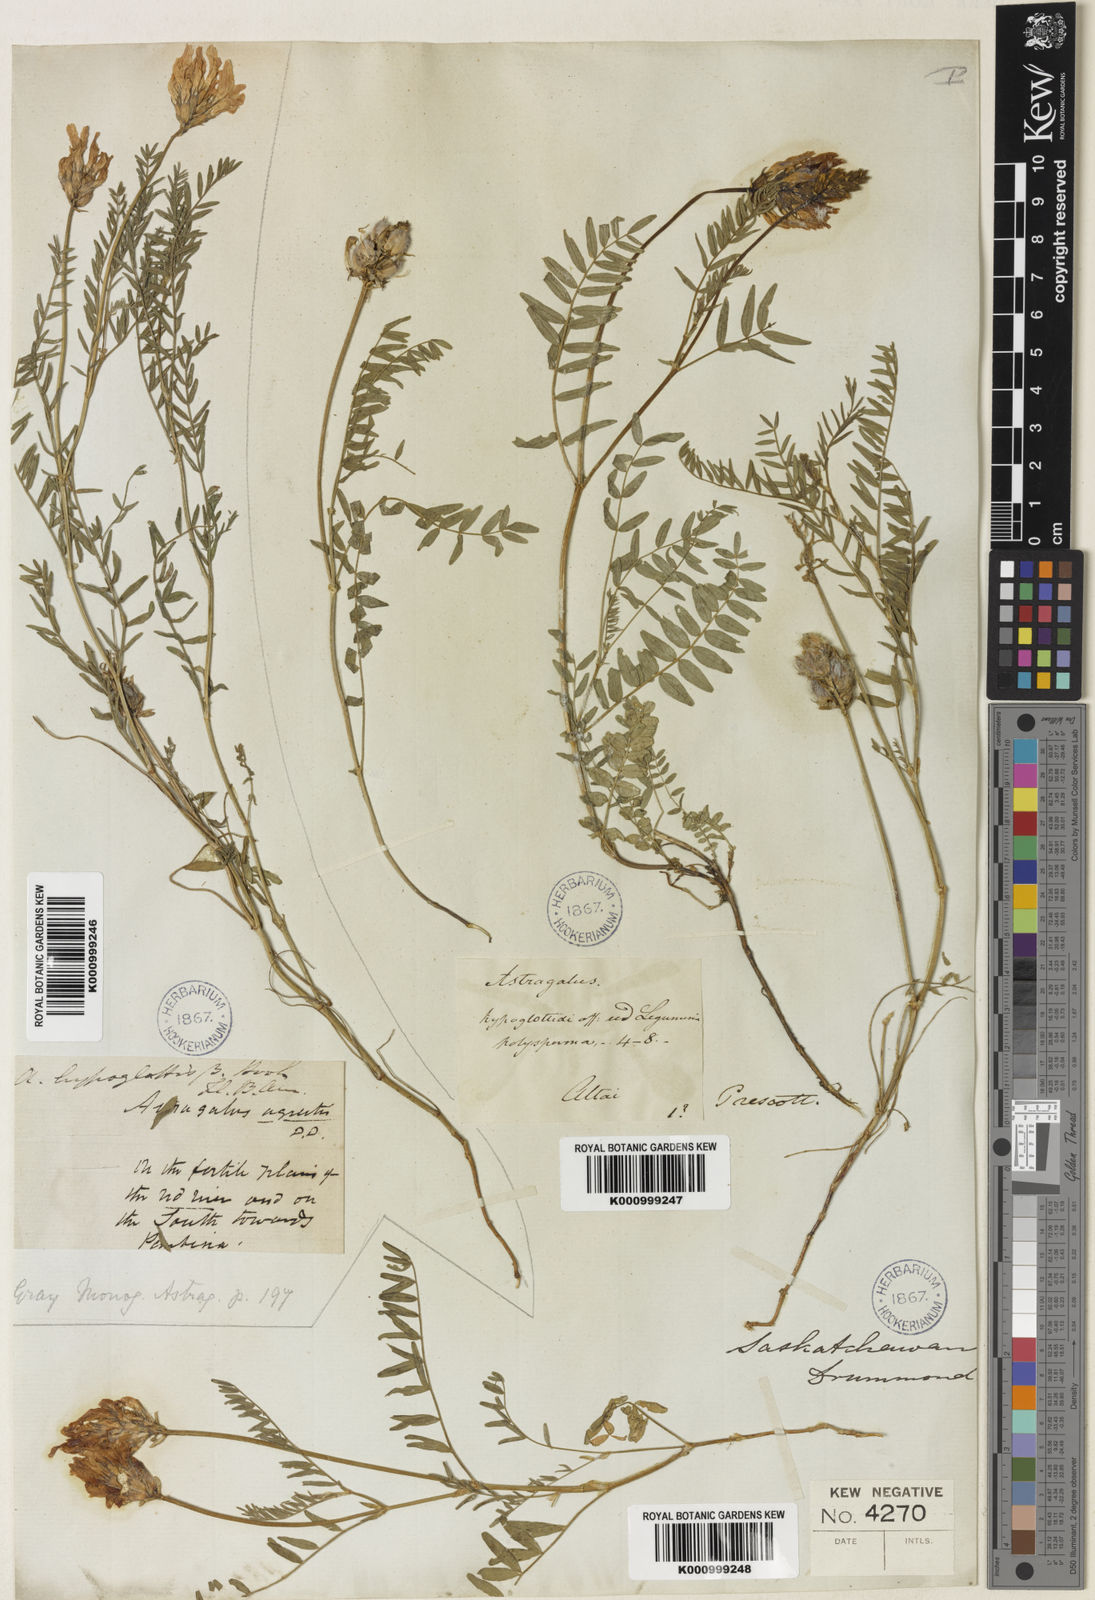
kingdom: Plantae
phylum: Tracheophyta
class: Magnoliopsida
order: Fabales
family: Fabaceae
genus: Astragalus
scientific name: Astragalus
